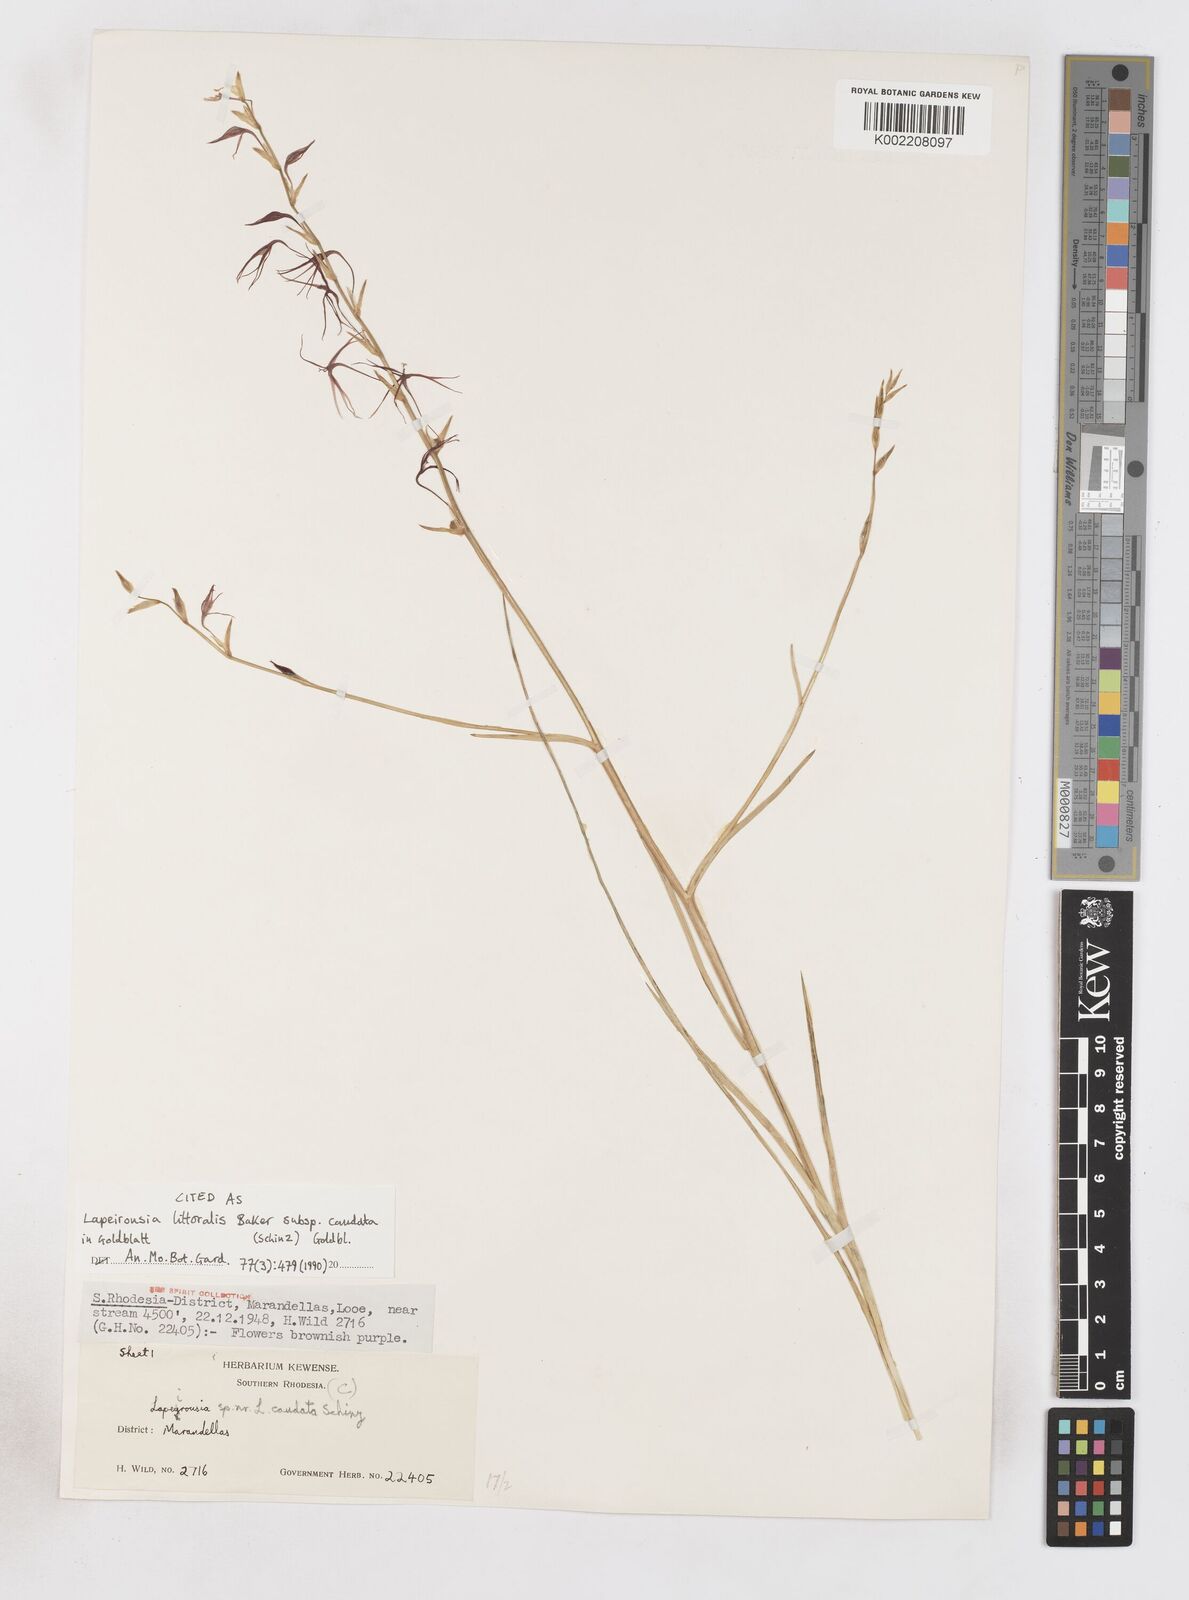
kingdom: Plantae
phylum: Tracheophyta
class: Liliopsida
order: Asparagales
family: Iridaceae
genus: Lapeirousia
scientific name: Lapeirousia caudata
